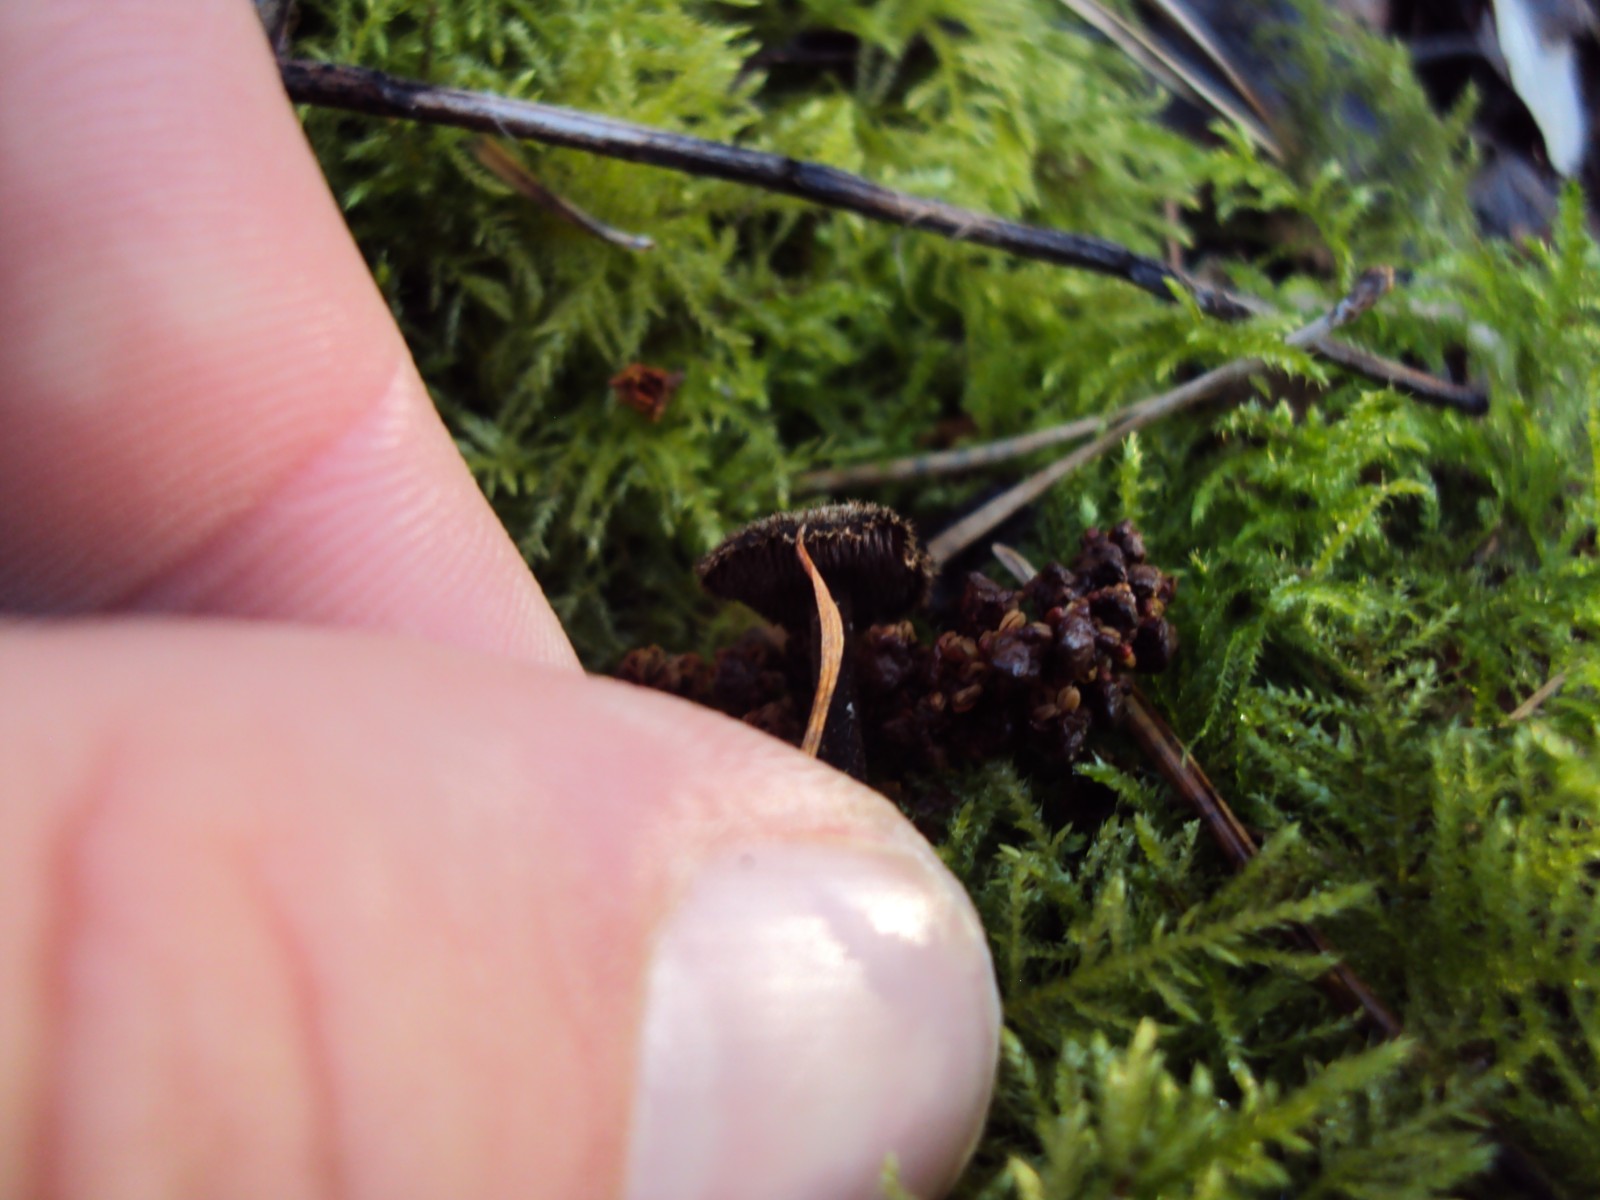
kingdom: Fungi
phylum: Basidiomycota
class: Agaricomycetes
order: Russulales
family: Auriscalpiaceae
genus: Auriscalpium
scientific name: Auriscalpium vulgare
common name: koglepigsvamp
